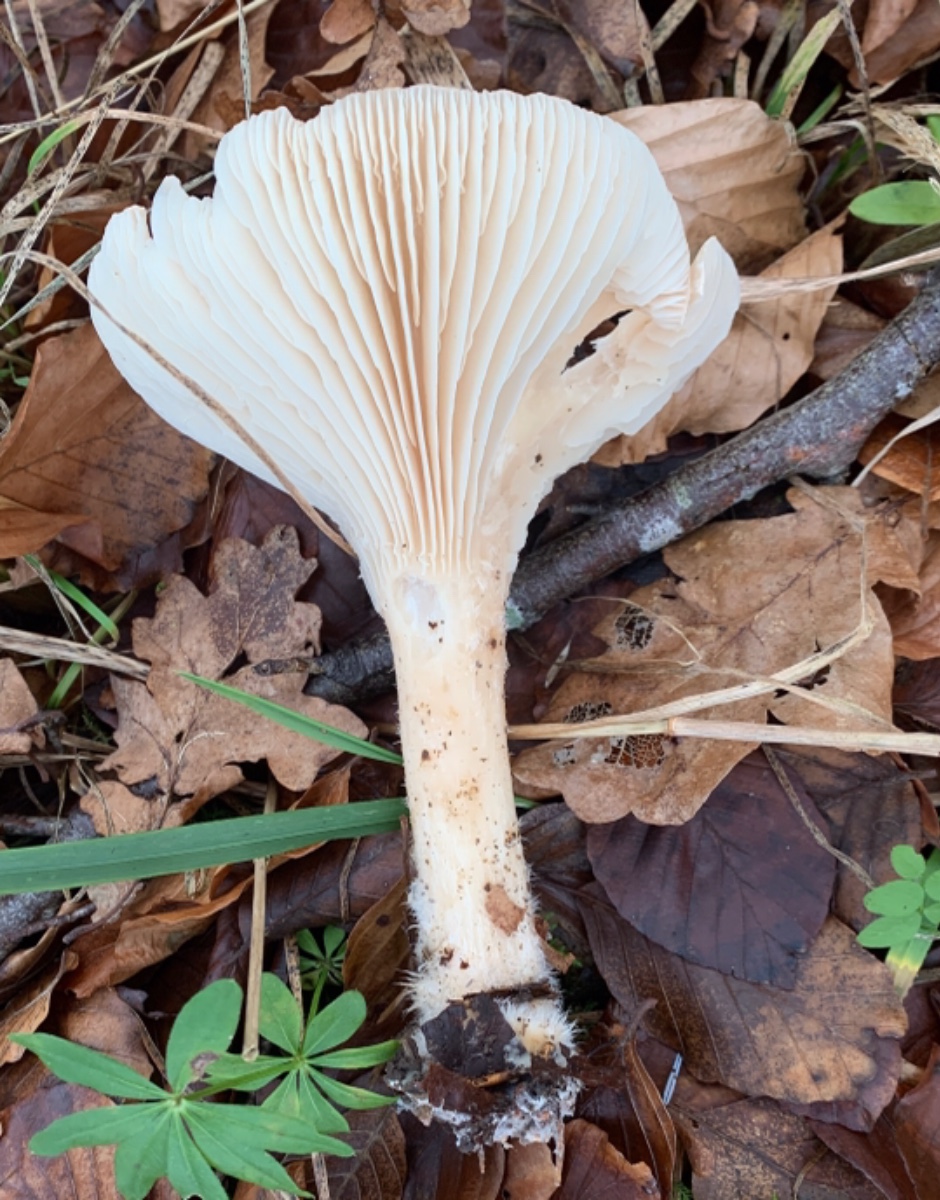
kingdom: Fungi
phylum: Basidiomycota
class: Agaricomycetes
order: Agaricales
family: Tricholomataceae
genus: Infundibulicybe
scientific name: Infundibulicybe geotropa
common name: stor tragthat
